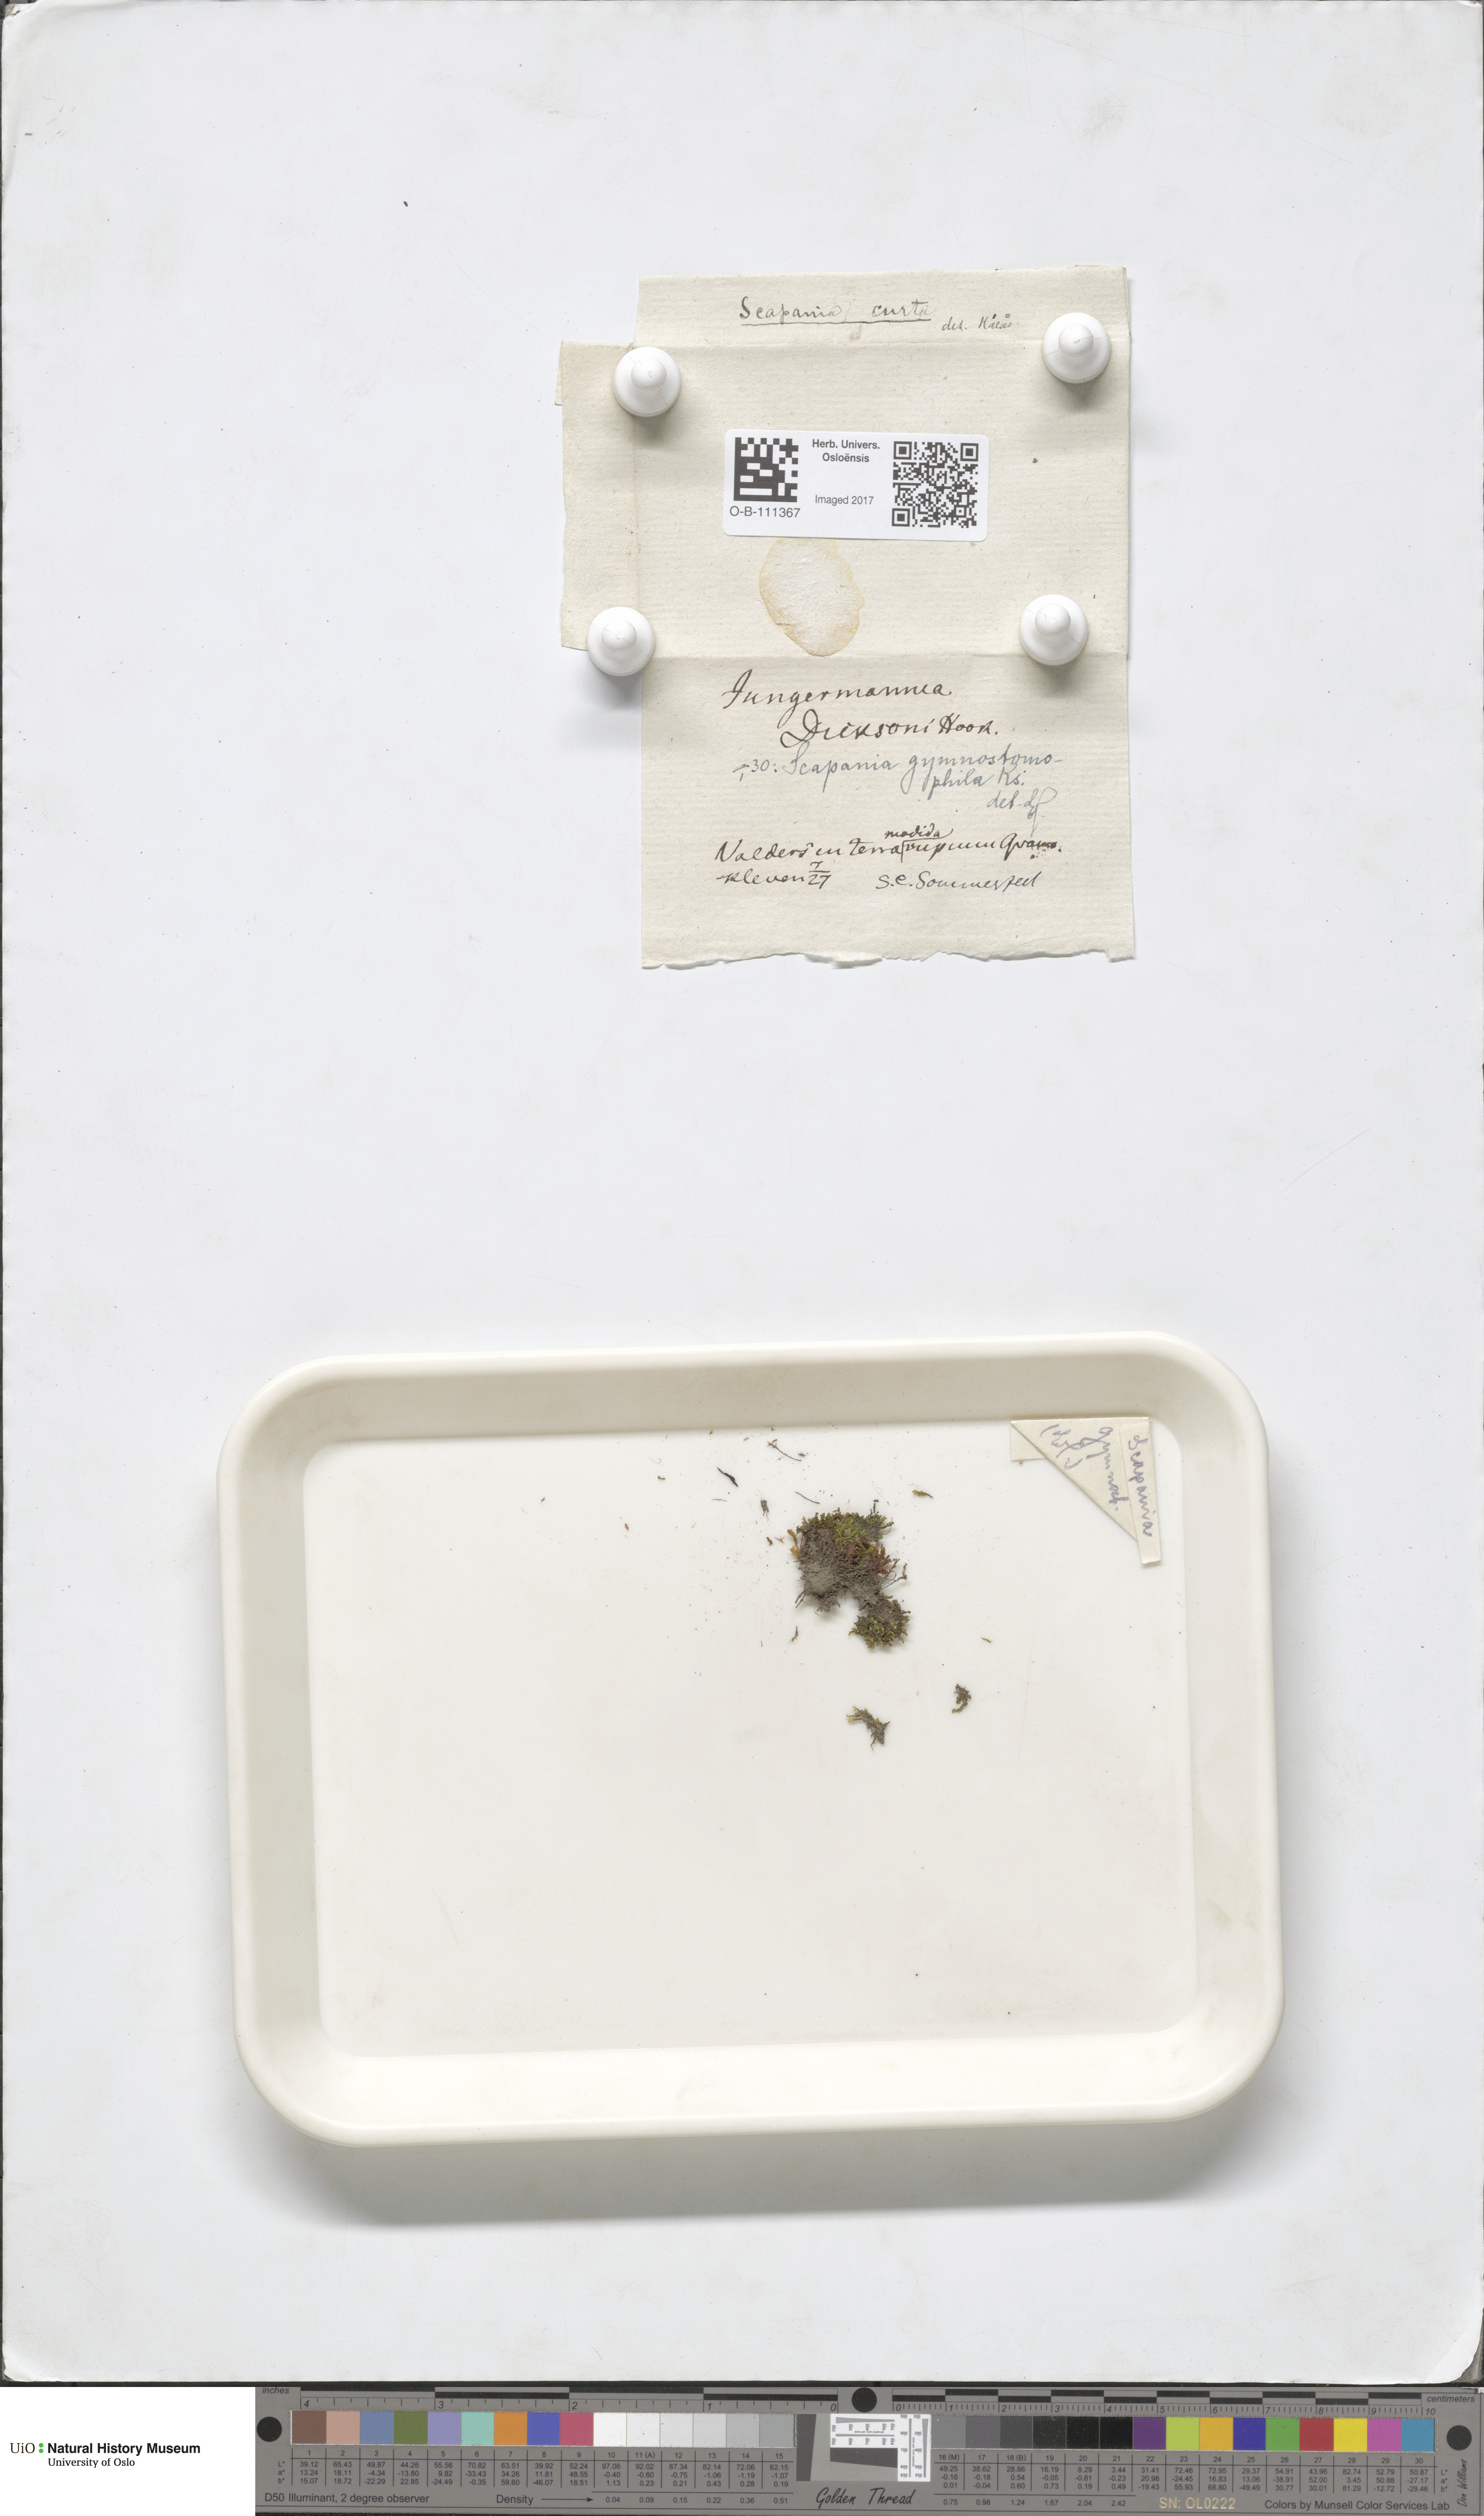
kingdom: Plantae
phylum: Marchantiophyta
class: Jungermanniopsida
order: Jungermanniales
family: Scapaniaceae
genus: Scapania
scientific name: Scapania gymnostomophila
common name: Narrow-lobed earwort
